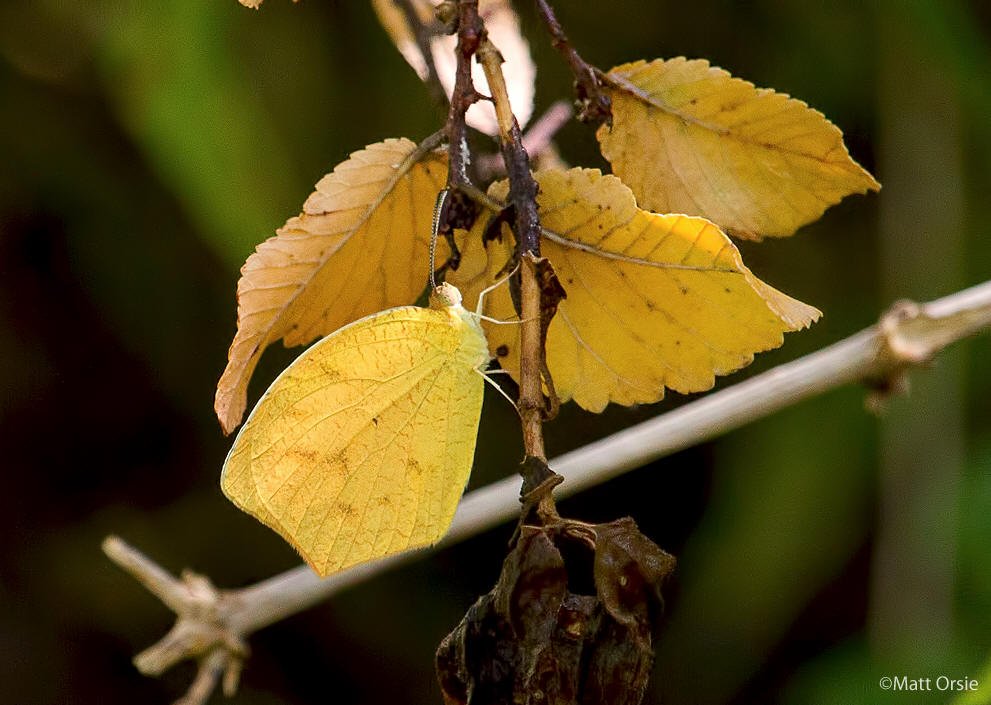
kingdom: Animalia
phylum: Arthropoda
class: Insecta
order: Lepidoptera
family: Pieridae
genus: Pyrisitia
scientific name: Pyrisitia proterpia
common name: Tailed Orange
